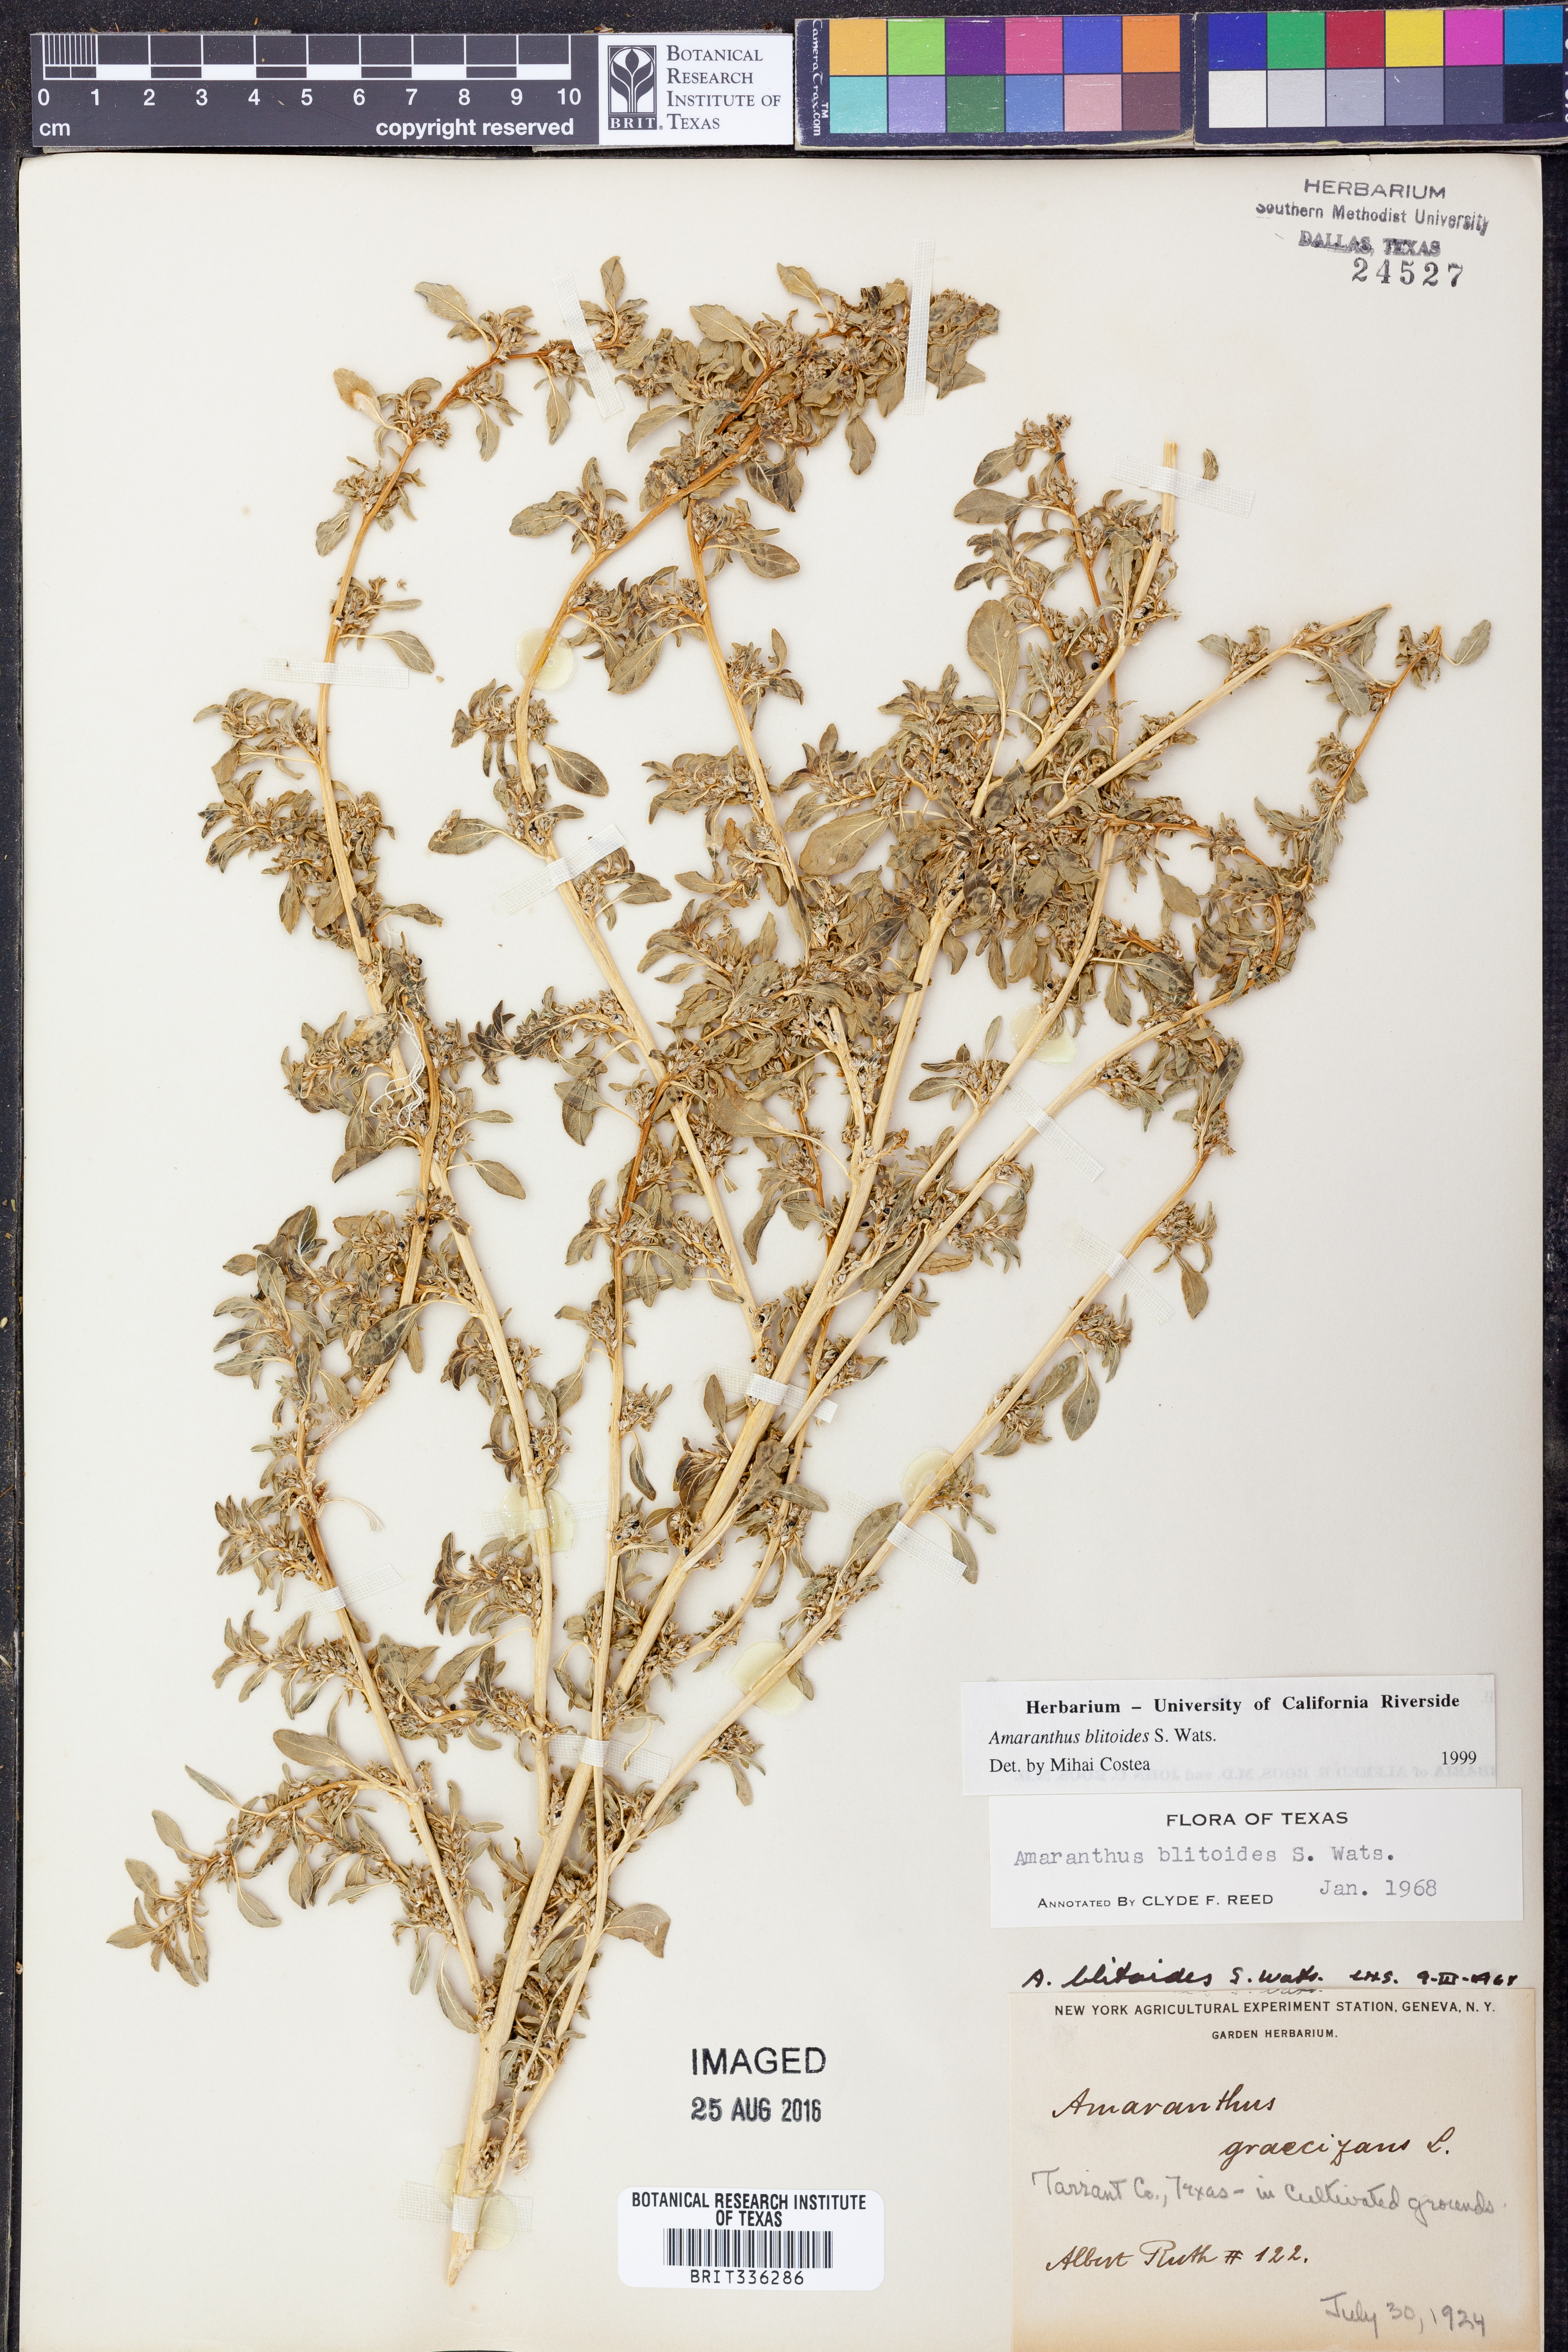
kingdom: Plantae
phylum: Tracheophyta
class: Magnoliopsida
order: Caryophyllales
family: Amaranthaceae
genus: Amaranthus
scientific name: Amaranthus blitoides
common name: Prostrate pigweed
